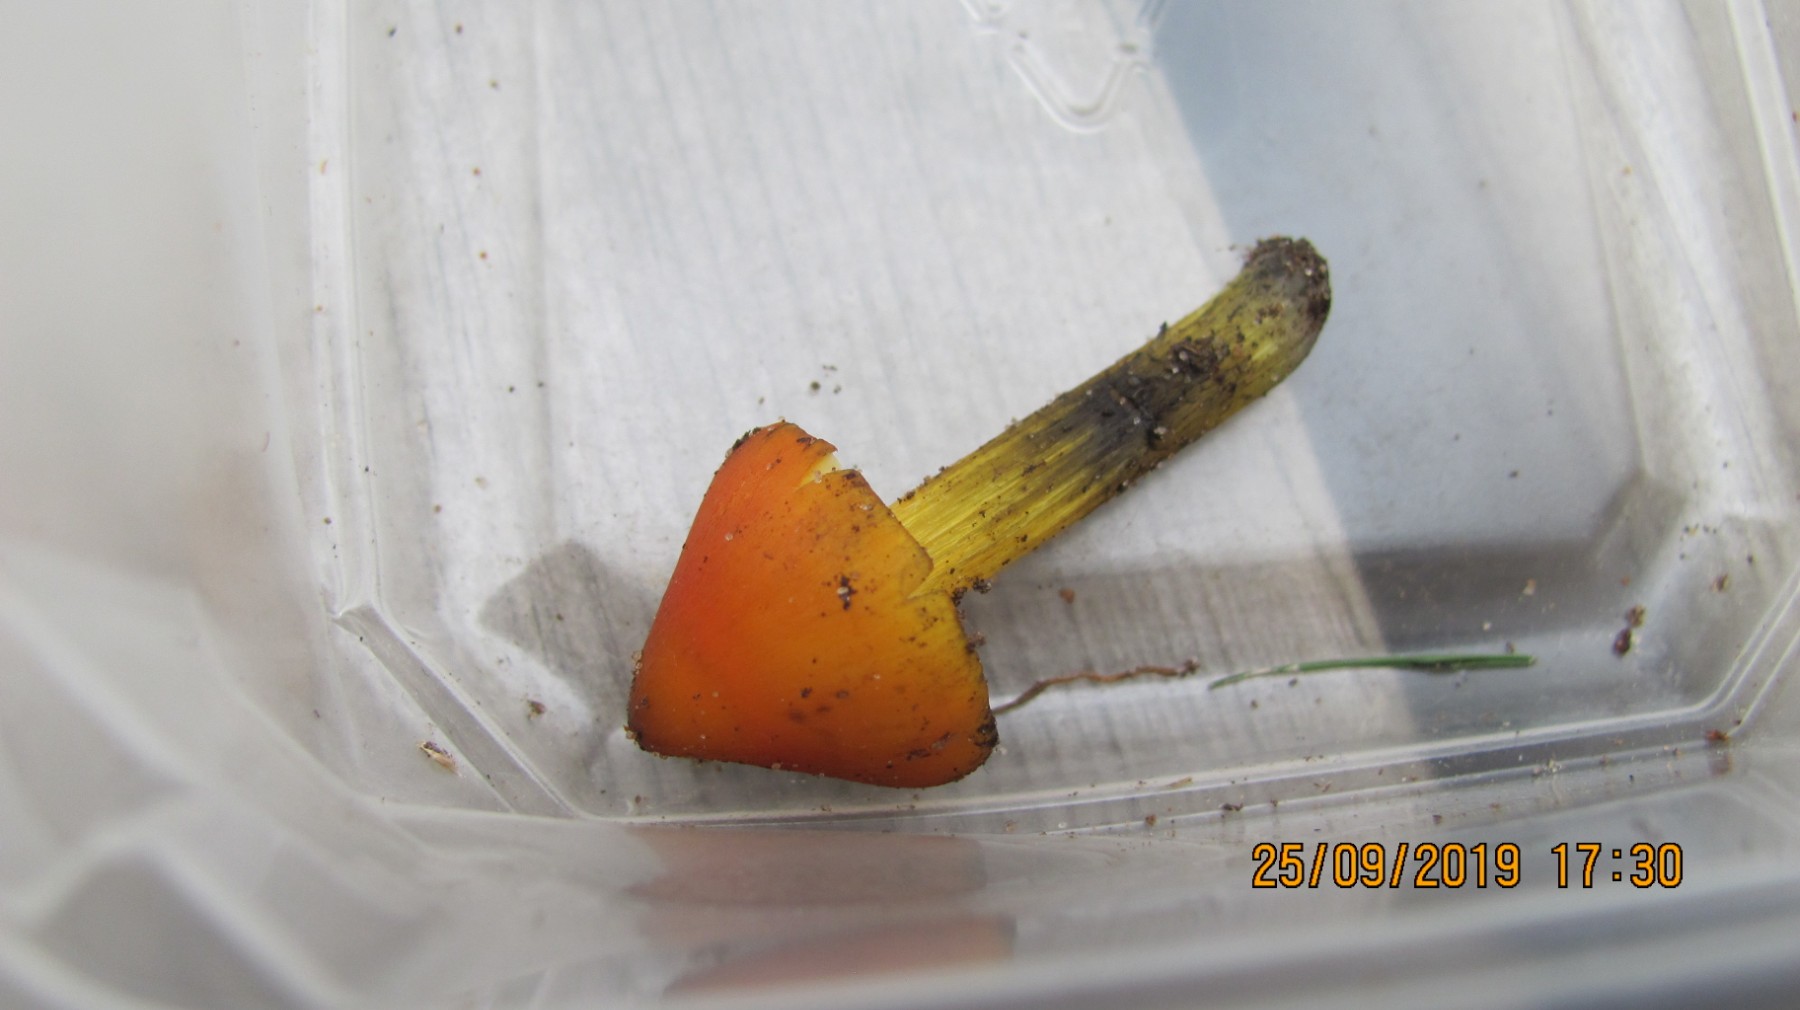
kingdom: Fungi
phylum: Basidiomycota
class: Agaricomycetes
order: Agaricales
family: Hygrophoraceae
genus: Hygrocybe
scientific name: Hygrocybe conica
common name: kegle-vokshat
